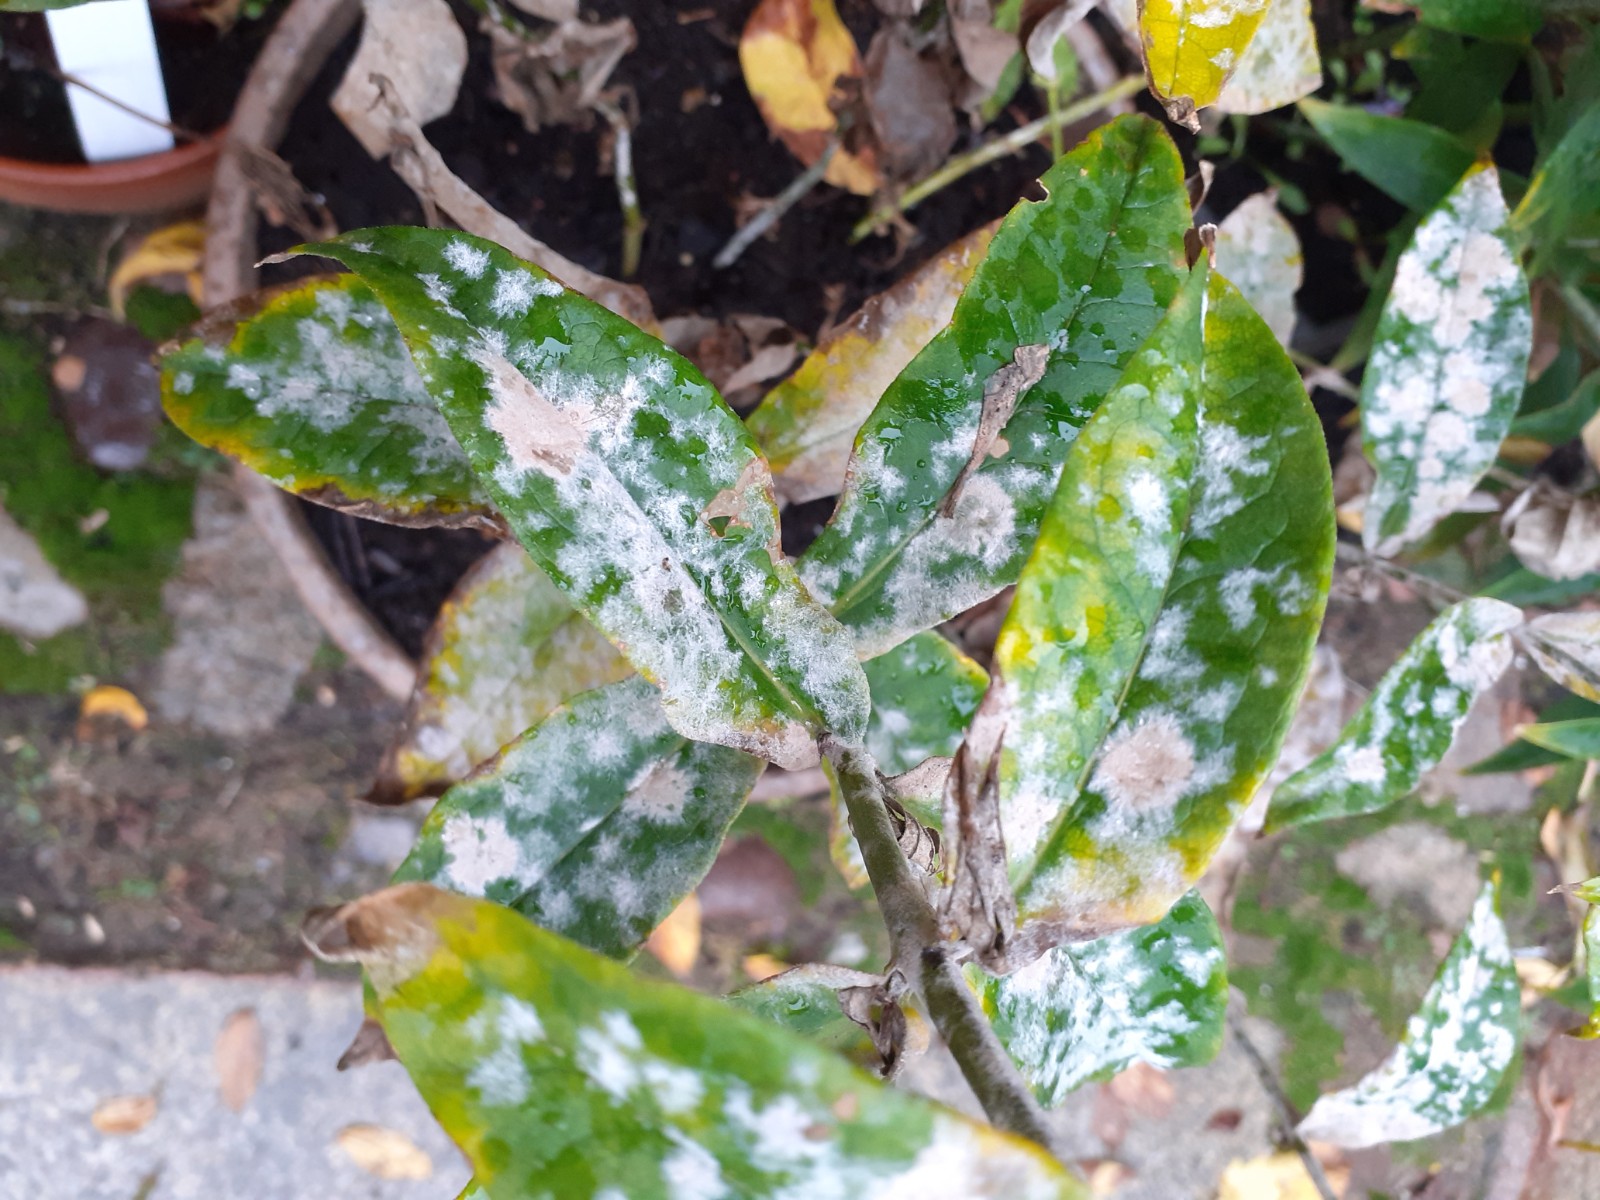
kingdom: Fungi
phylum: Ascomycota
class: Leotiomycetes
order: Helotiales
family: Erysiphaceae
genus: Golovinomyces
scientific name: Golovinomyces magnicellulatus
